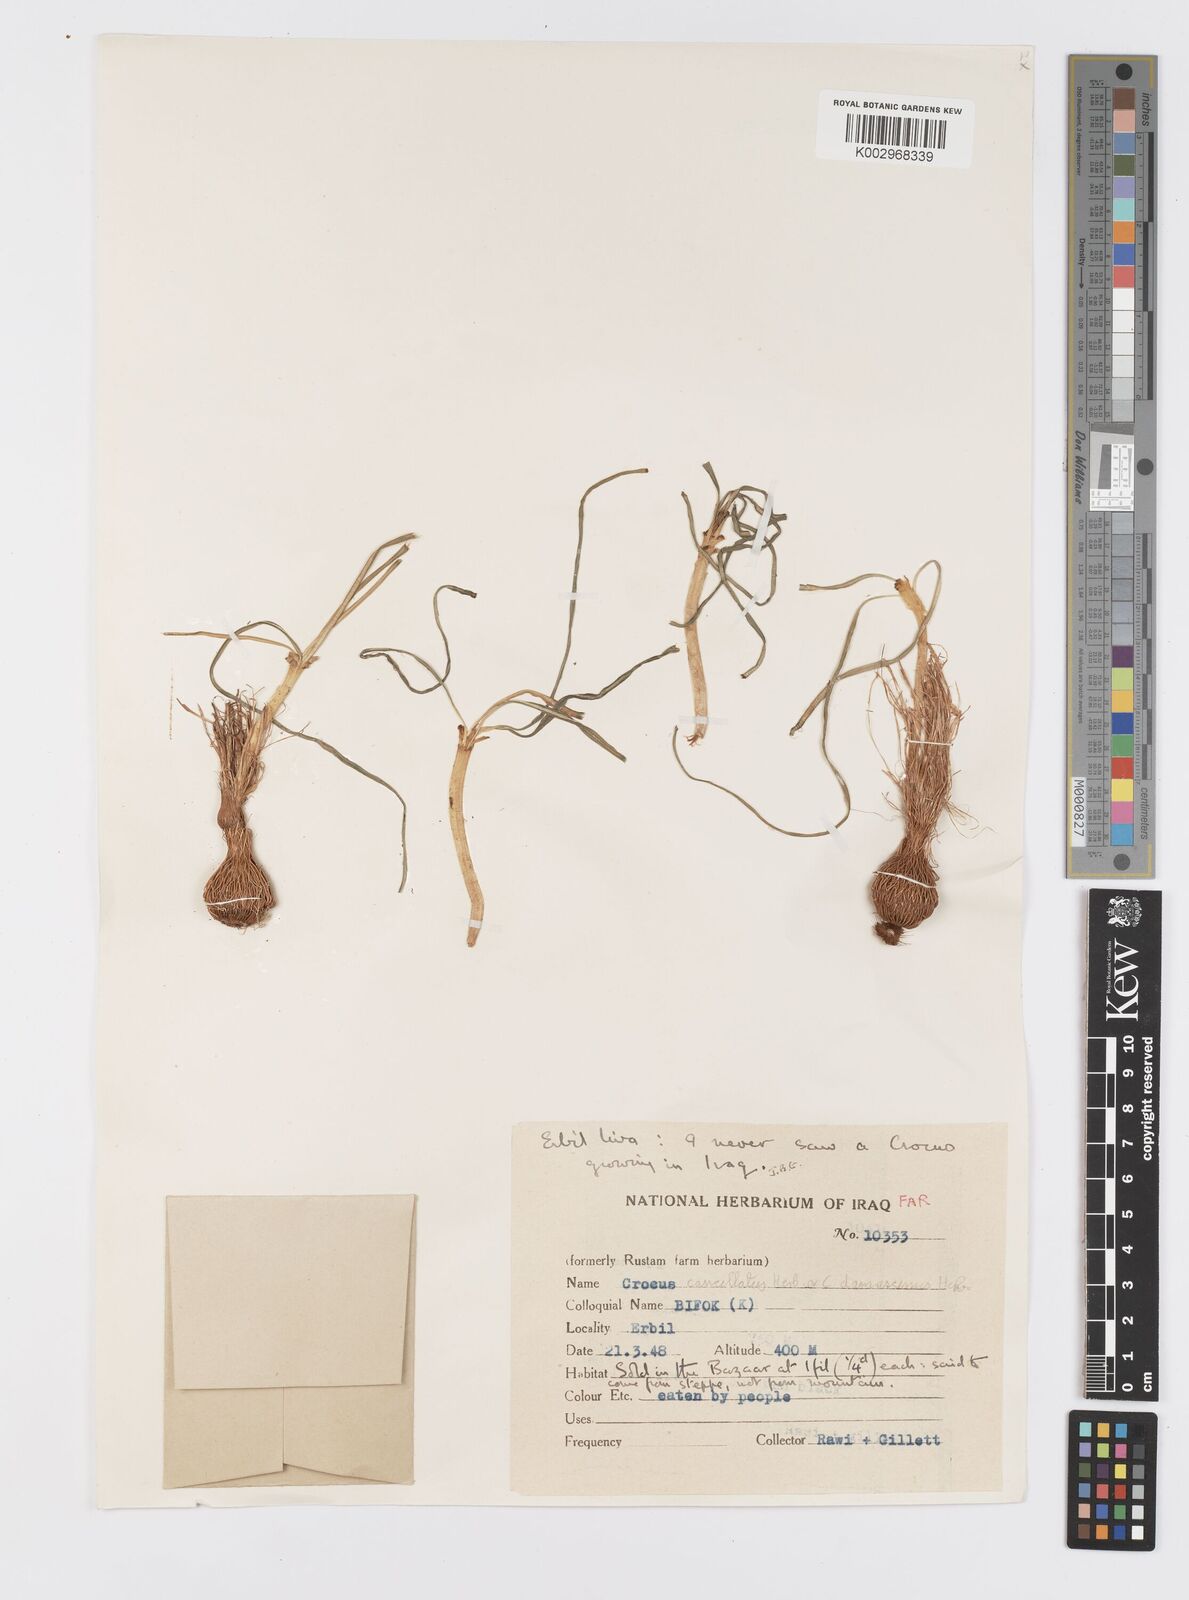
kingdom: Plantae
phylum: Tracheophyta
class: Liliopsida
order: Asparagales
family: Iridaceae
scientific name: Iridaceae
